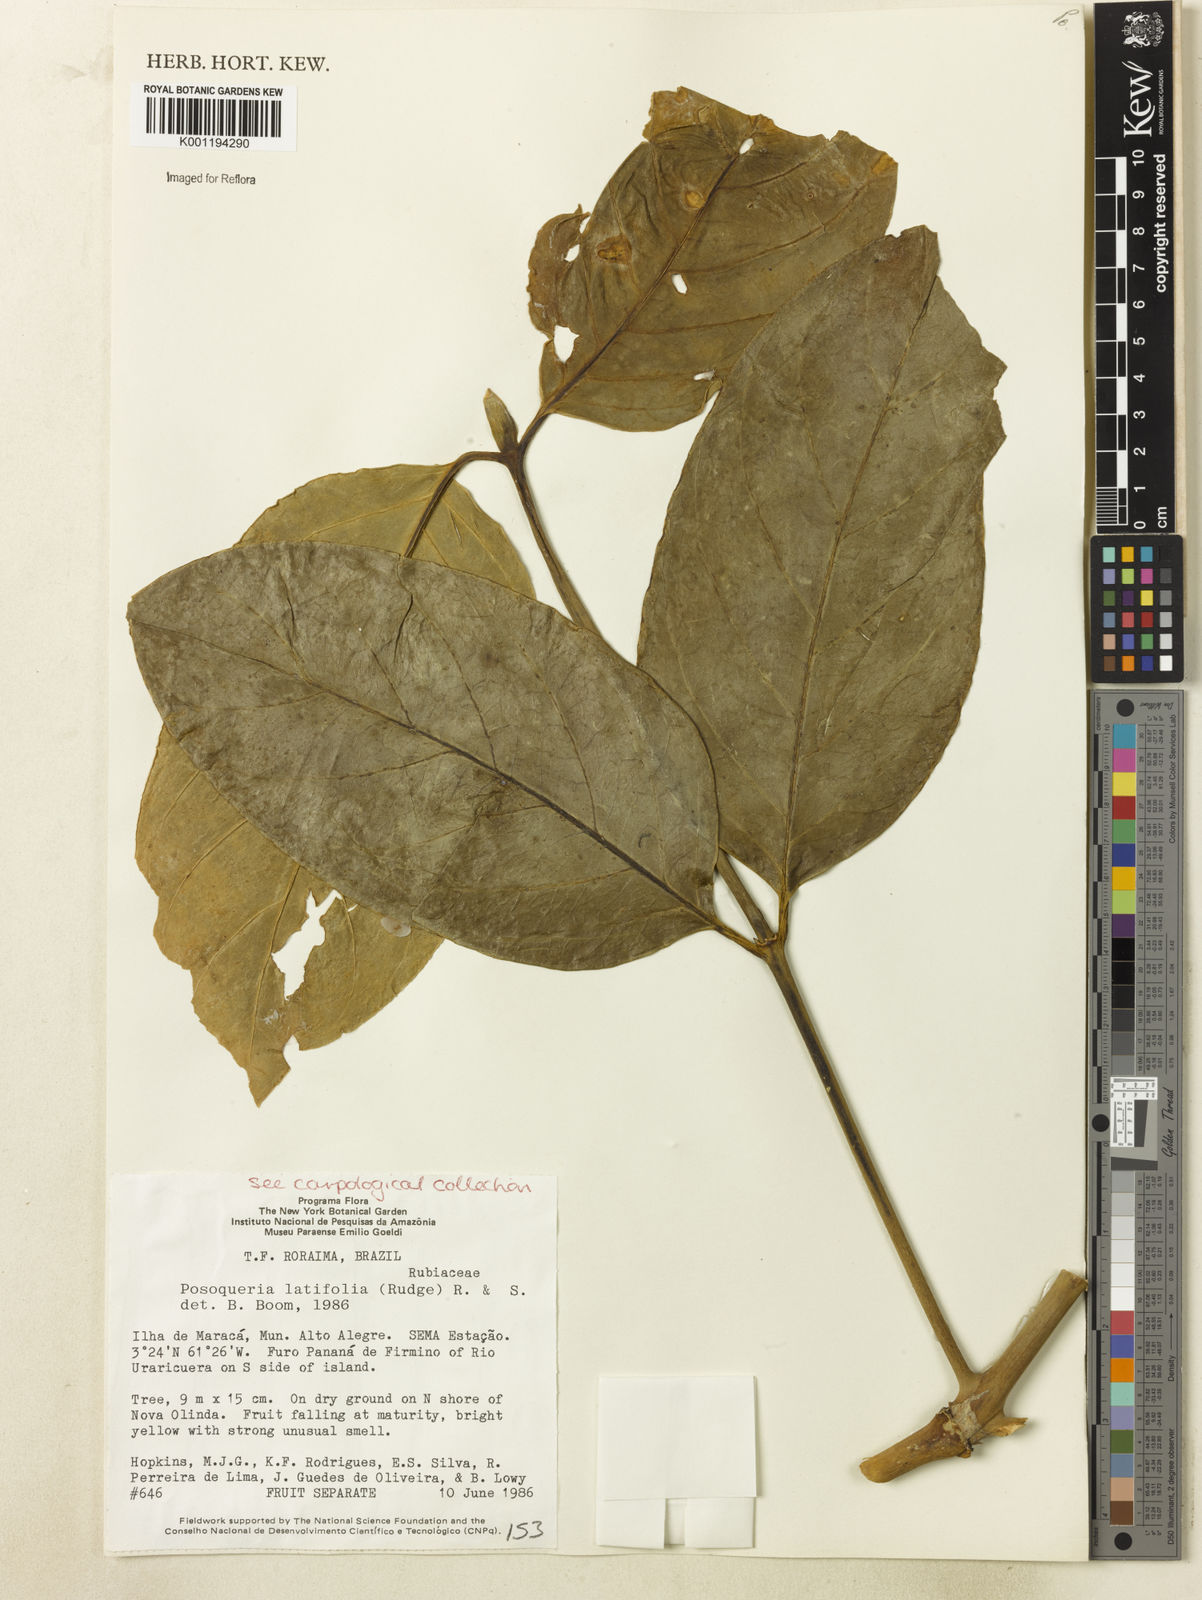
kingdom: Plantae
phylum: Tracheophyta
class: Magnoliopsida
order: Gentianales
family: Rubiaceae
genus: Posoqueria
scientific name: Posoqueria latifolia
